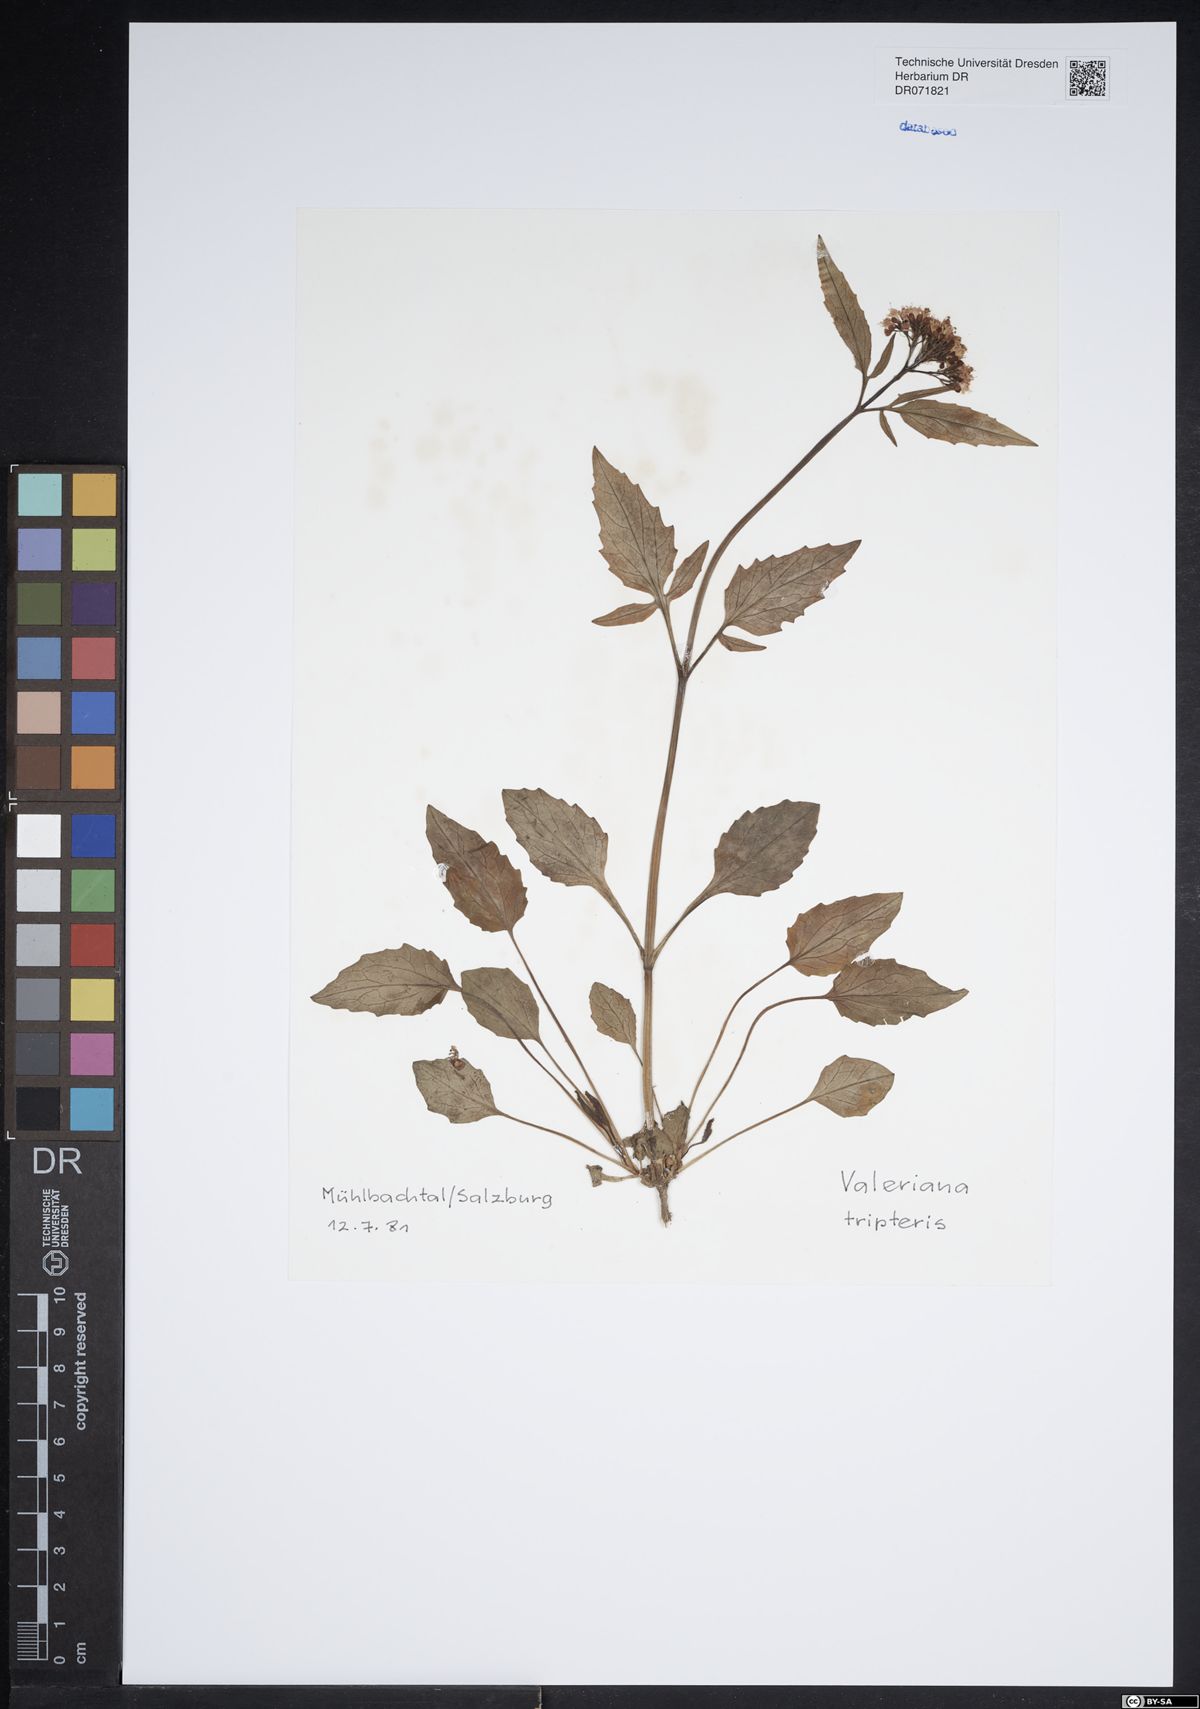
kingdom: Plantae
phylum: Tracheophyta
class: Magnoliopsida
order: Dipsacales
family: Caprifoliaceae
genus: Valeriana
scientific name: Valeriana tripteris
